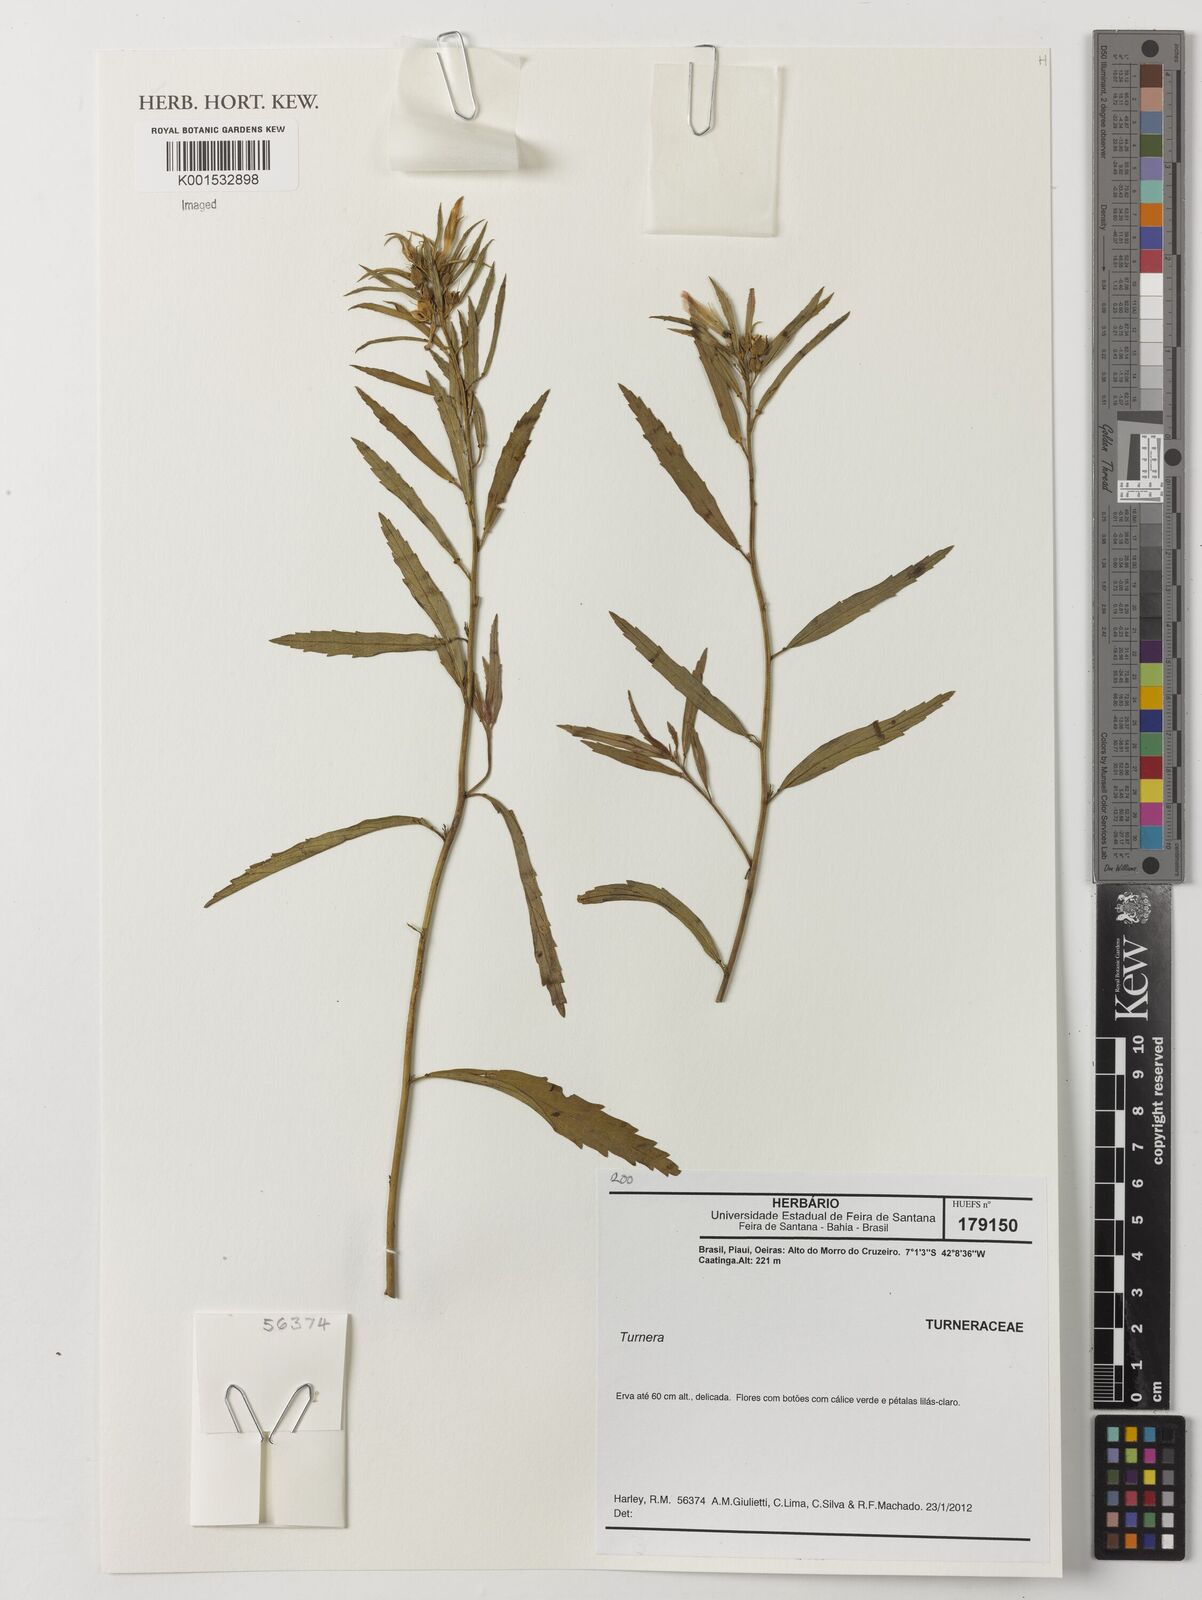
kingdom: Plantae
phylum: Tracheophyta
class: Magnoliopsida
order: Malpighiales
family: Turneraceae
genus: Turnera
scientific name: Turnera
